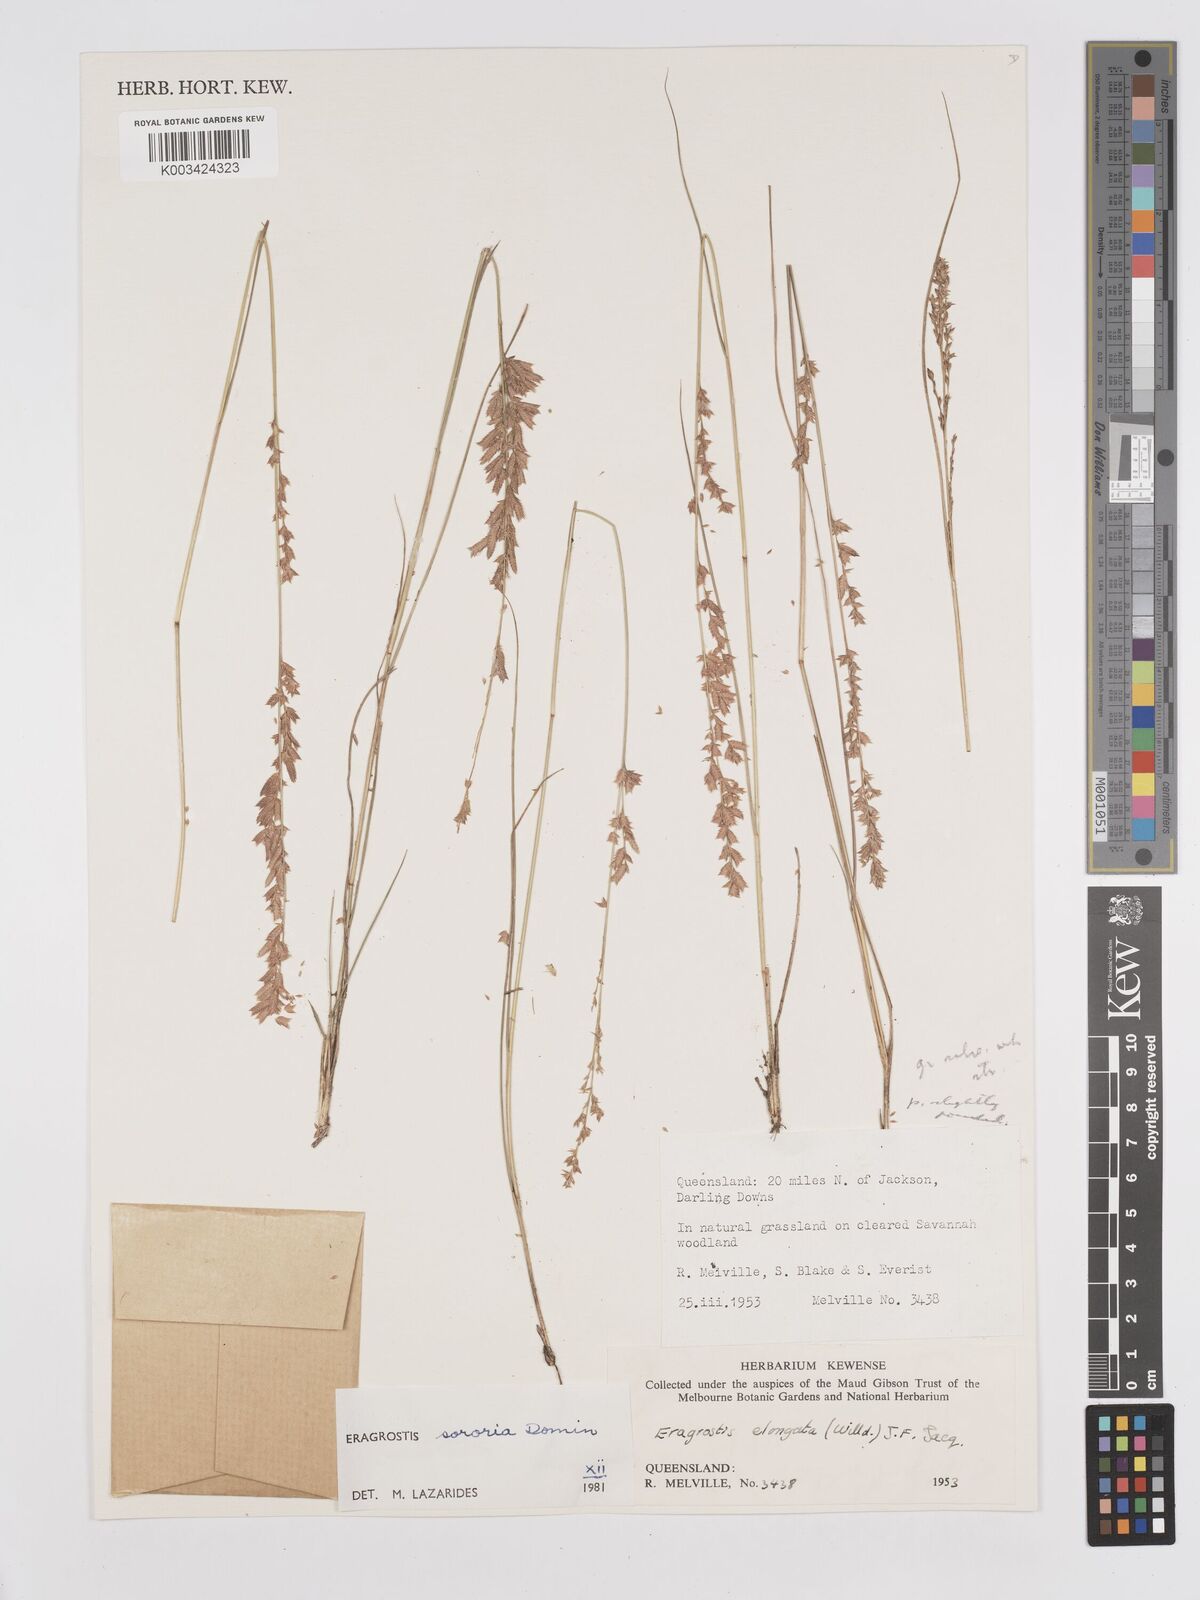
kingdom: Plantae
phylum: Tracheophyta
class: Liliopsida
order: Poales
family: Poaceae
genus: Eragrostis
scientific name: Eragrostis sororia
